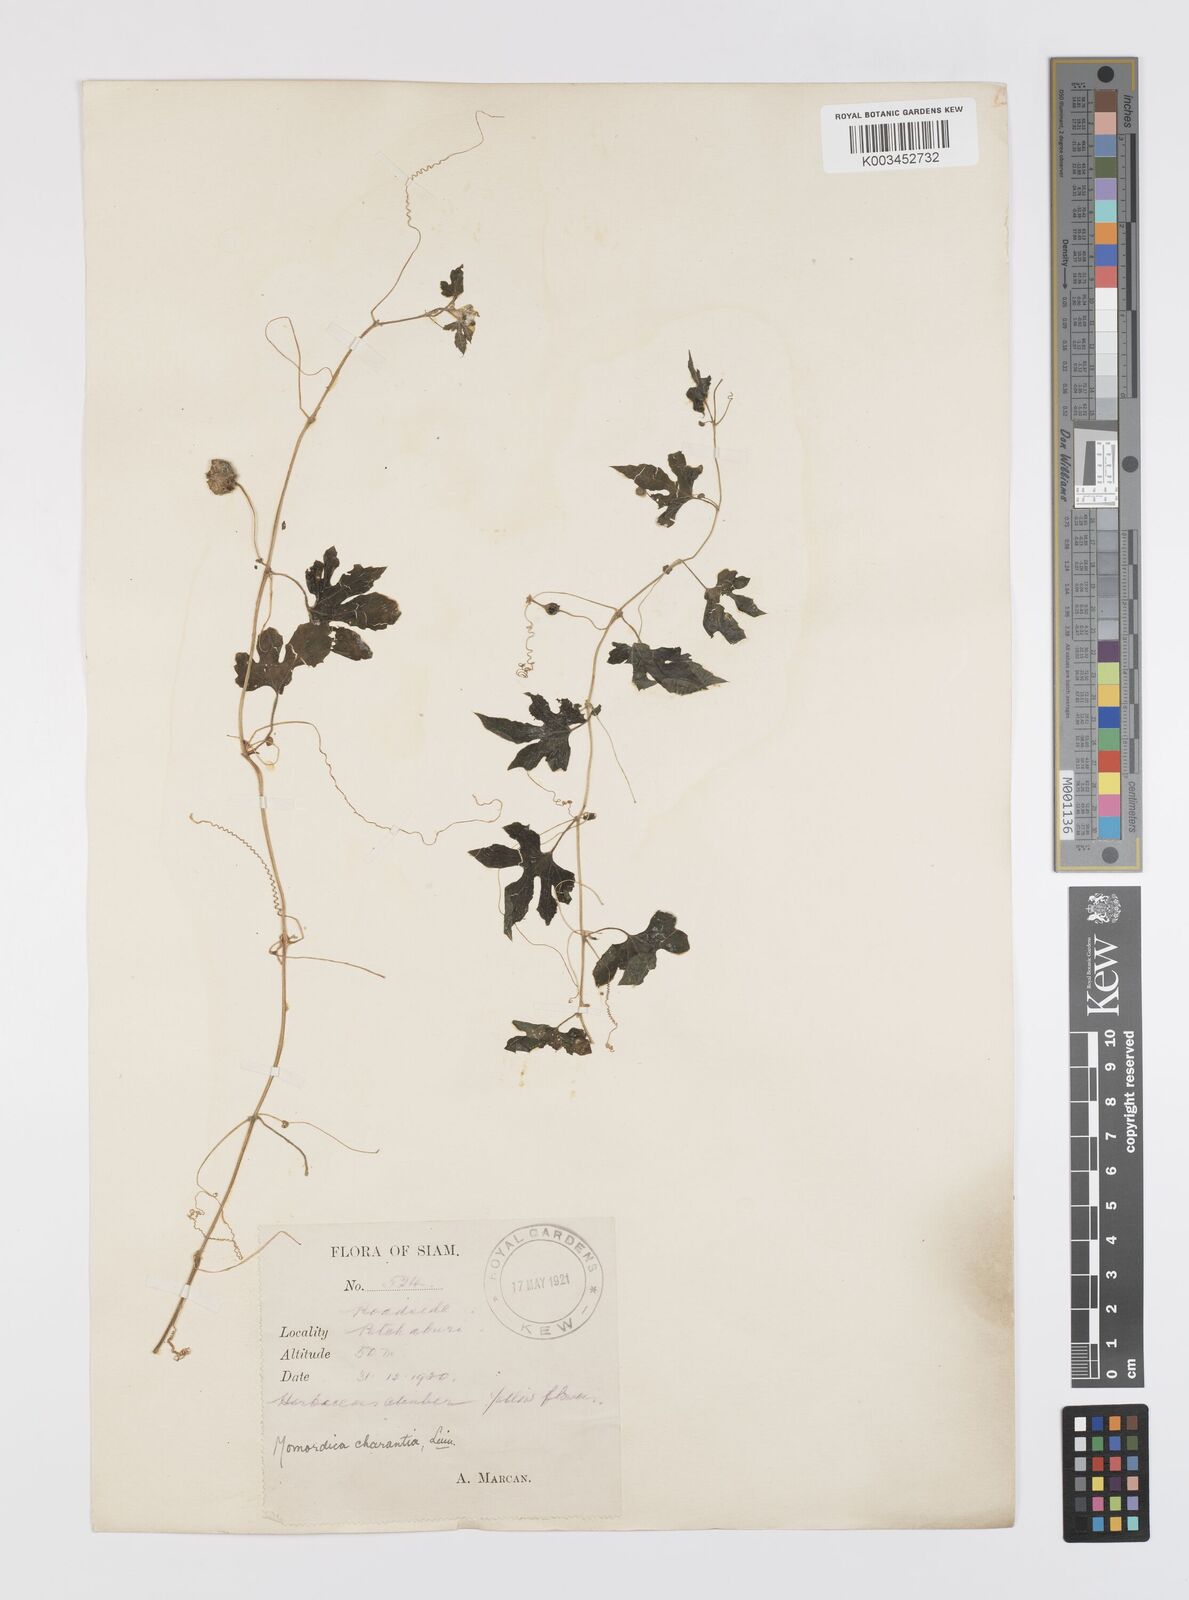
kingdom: Plantae
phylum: Tracheophyta
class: Magnoliopsida
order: Cucurbitales
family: Cucurbitaceae
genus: Momordica
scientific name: Momordica charantia
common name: Balsampear
